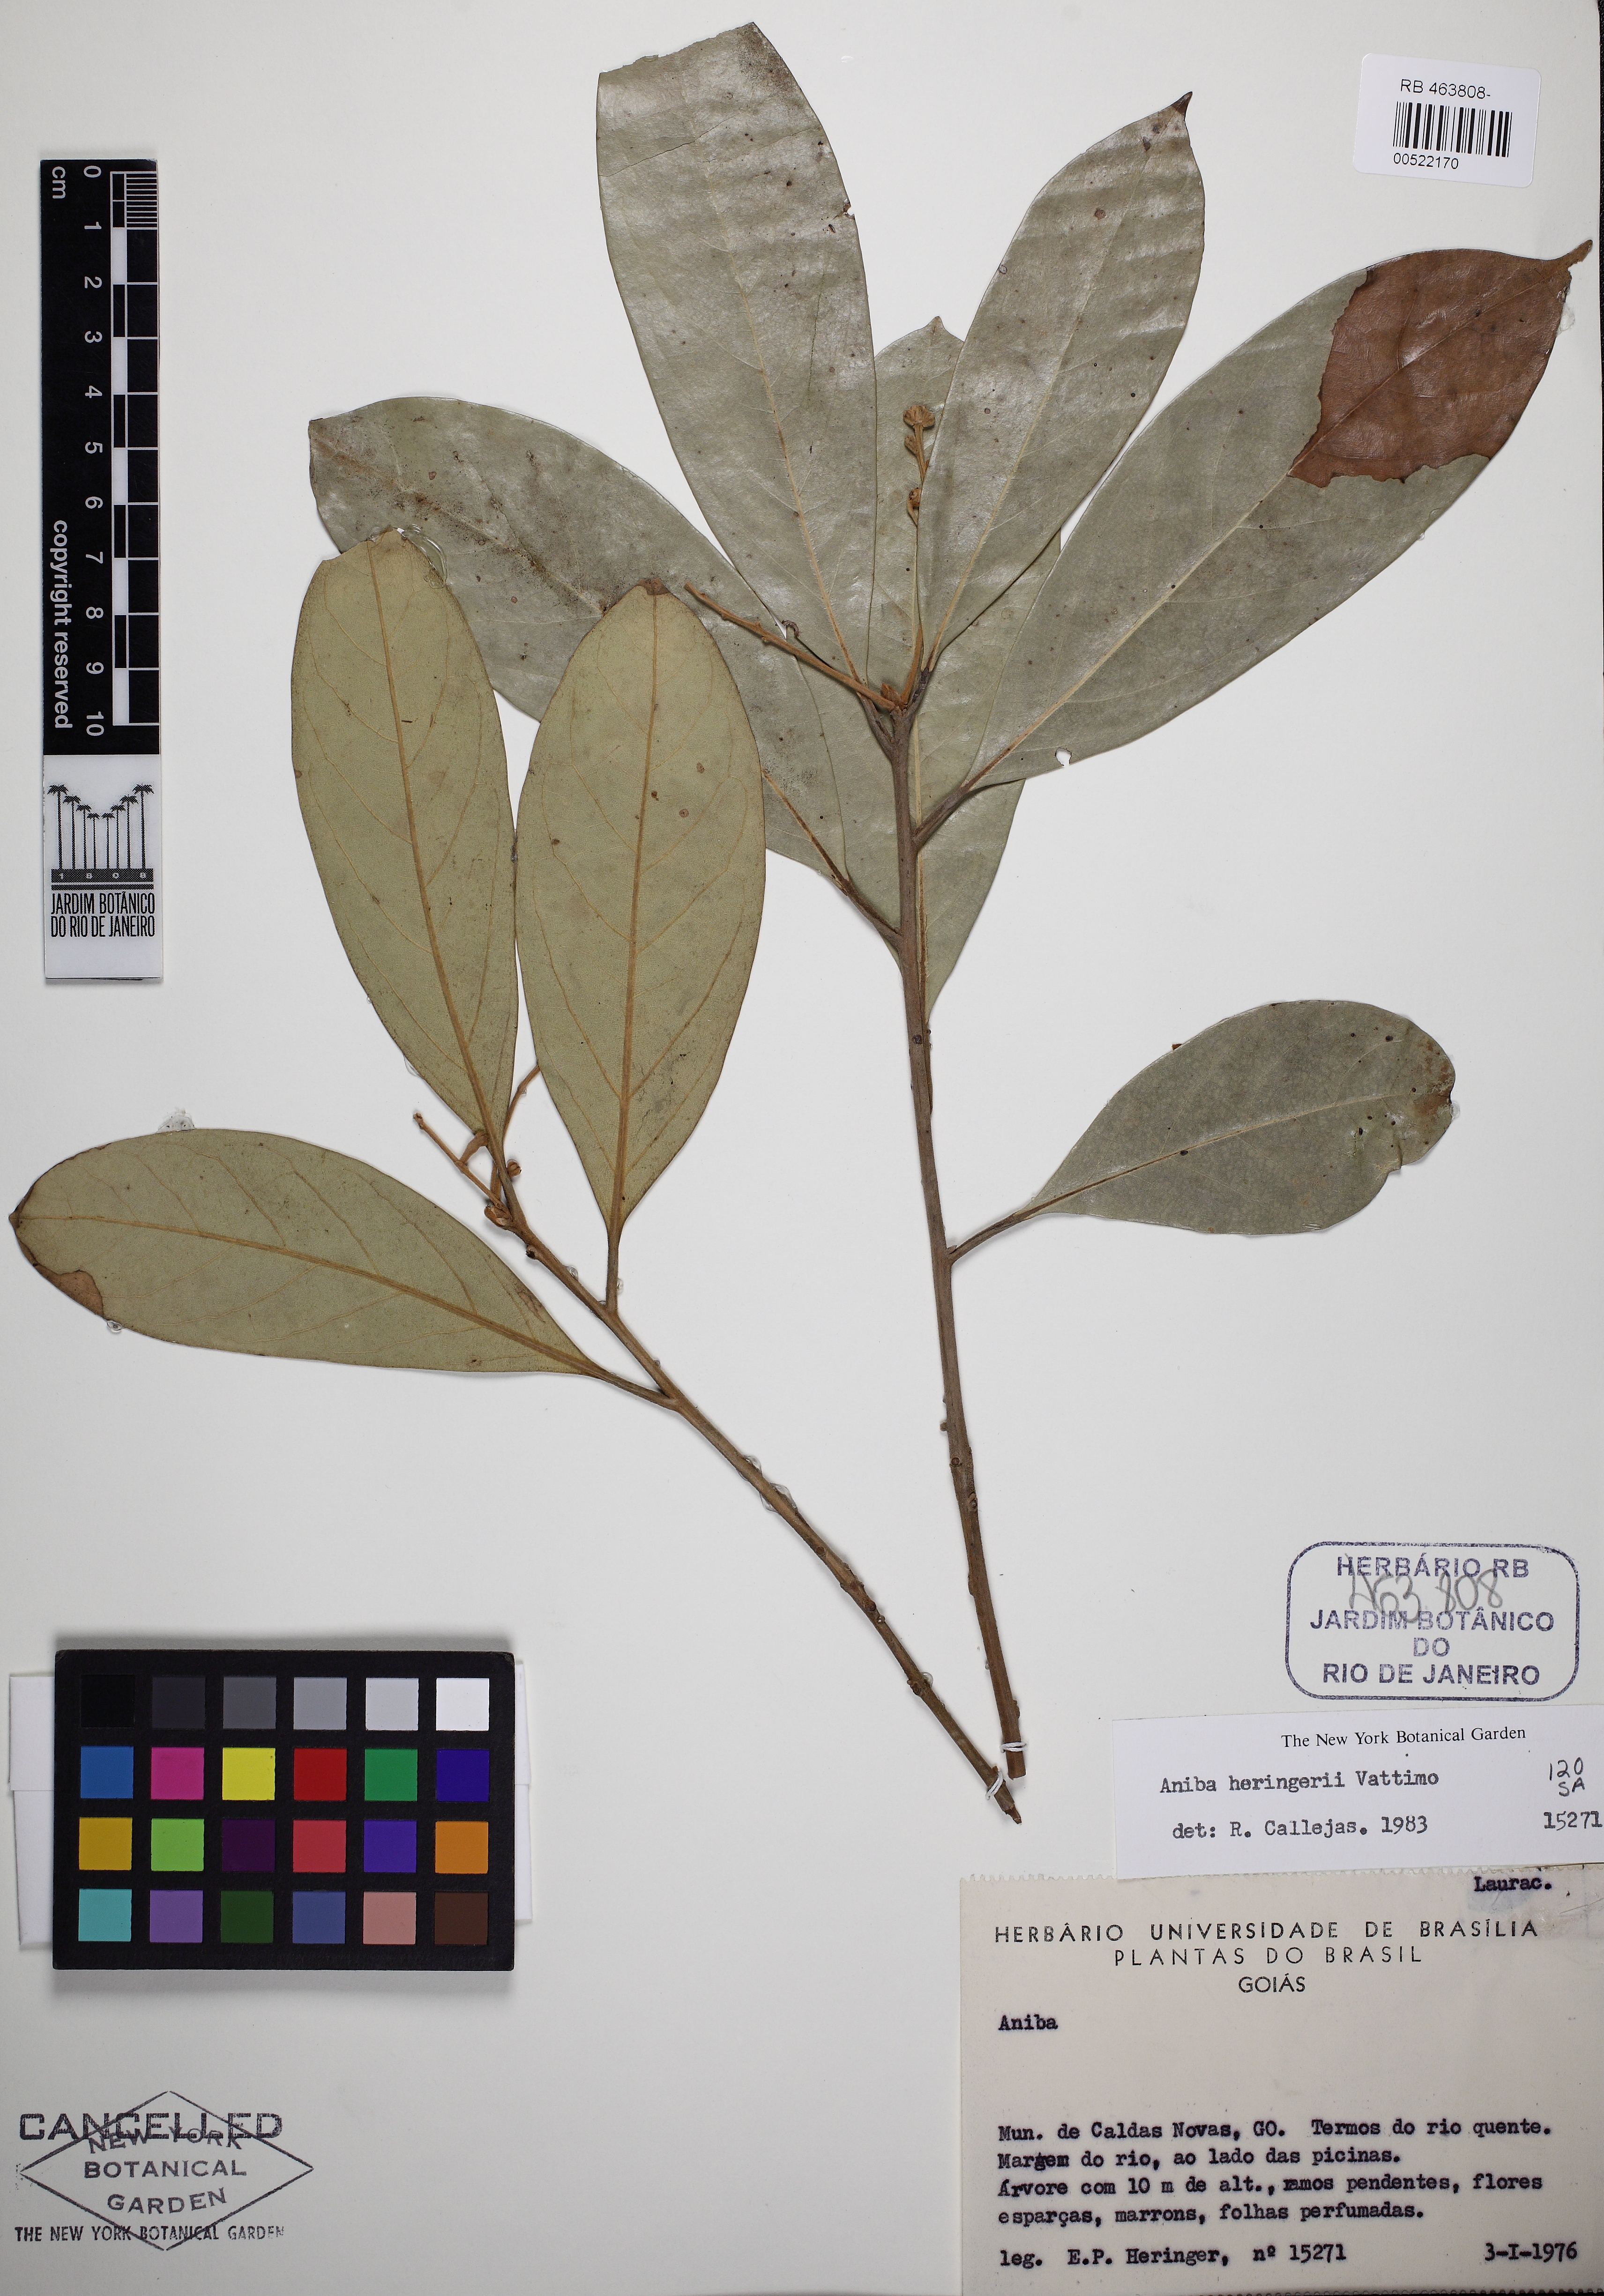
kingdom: Plantae
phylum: Tracheophyta
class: Magnoliopsida
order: Laurales
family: Lauraceae
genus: Aniba
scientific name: Aniba heringeri
